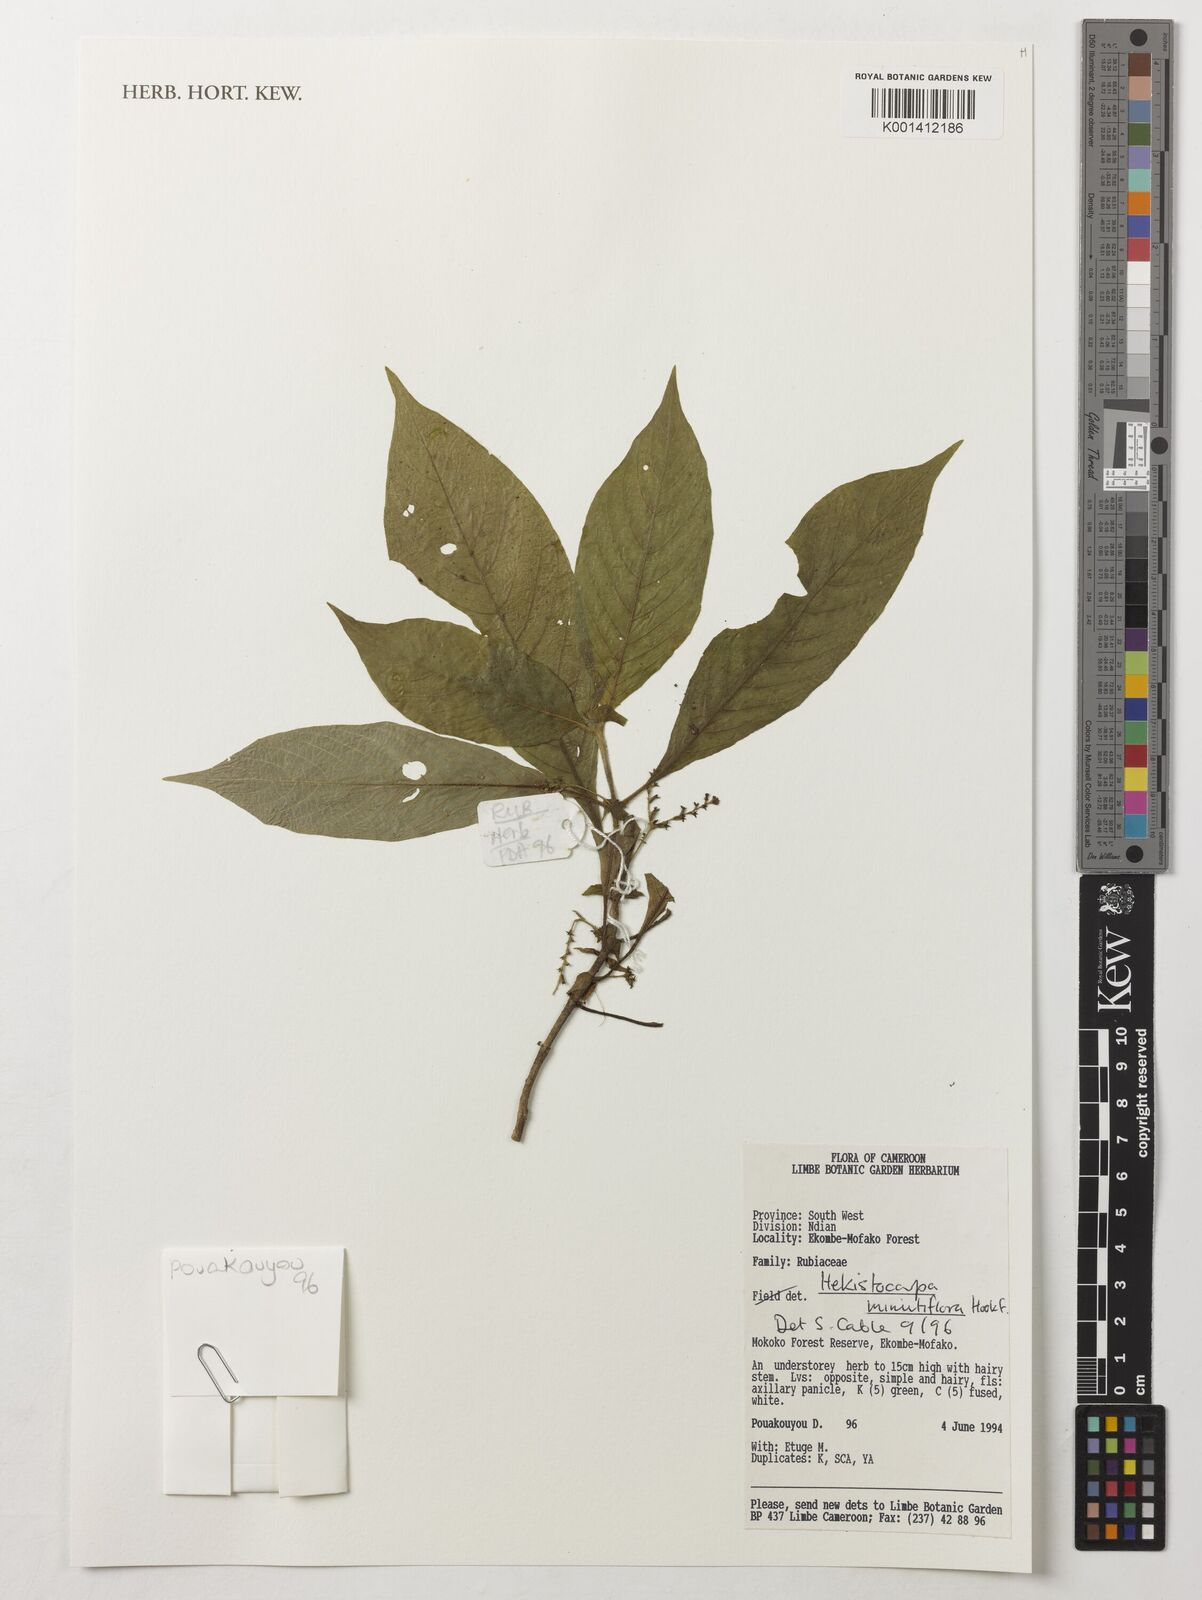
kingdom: Plantae
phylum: Tracheophyta
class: Magnoliopsida
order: Gentianales
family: Rubiaceae
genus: Hekistocarpa
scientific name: Hekistocarpa minutiflora
